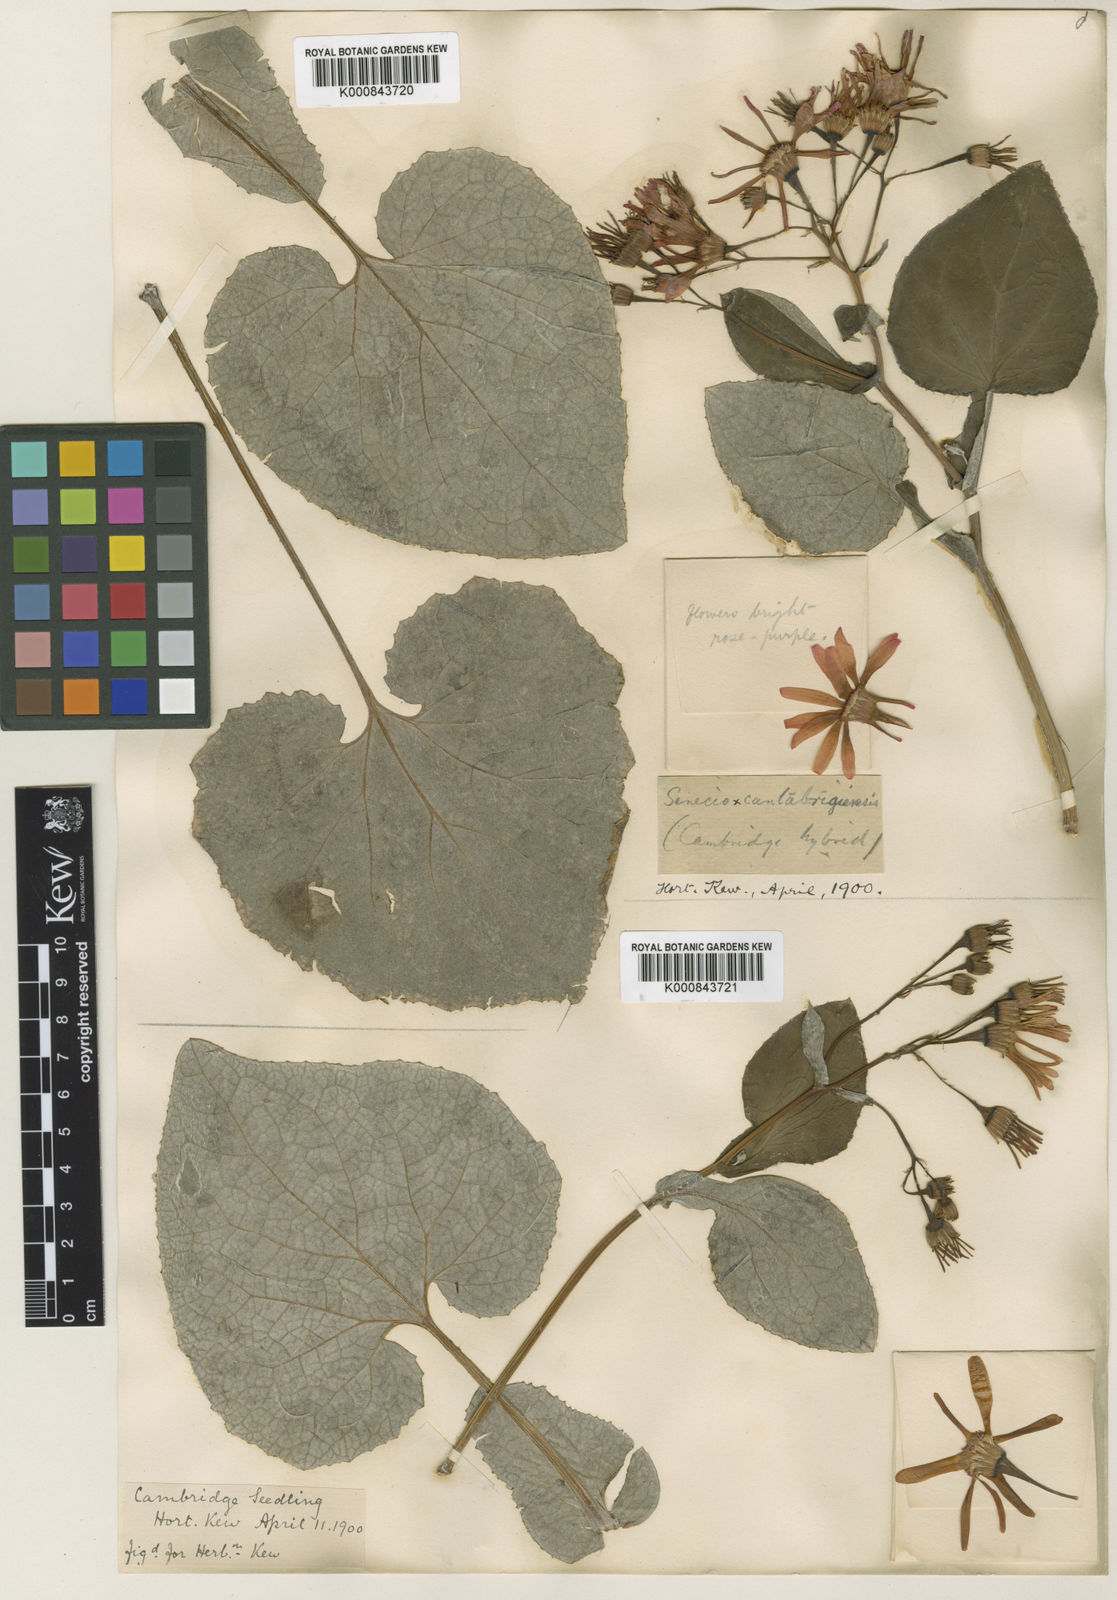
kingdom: Plantae
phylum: Tracheophyta
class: Magnoliopsida
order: Asterales
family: Asteraceae
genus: Senecio
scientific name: Senecio
